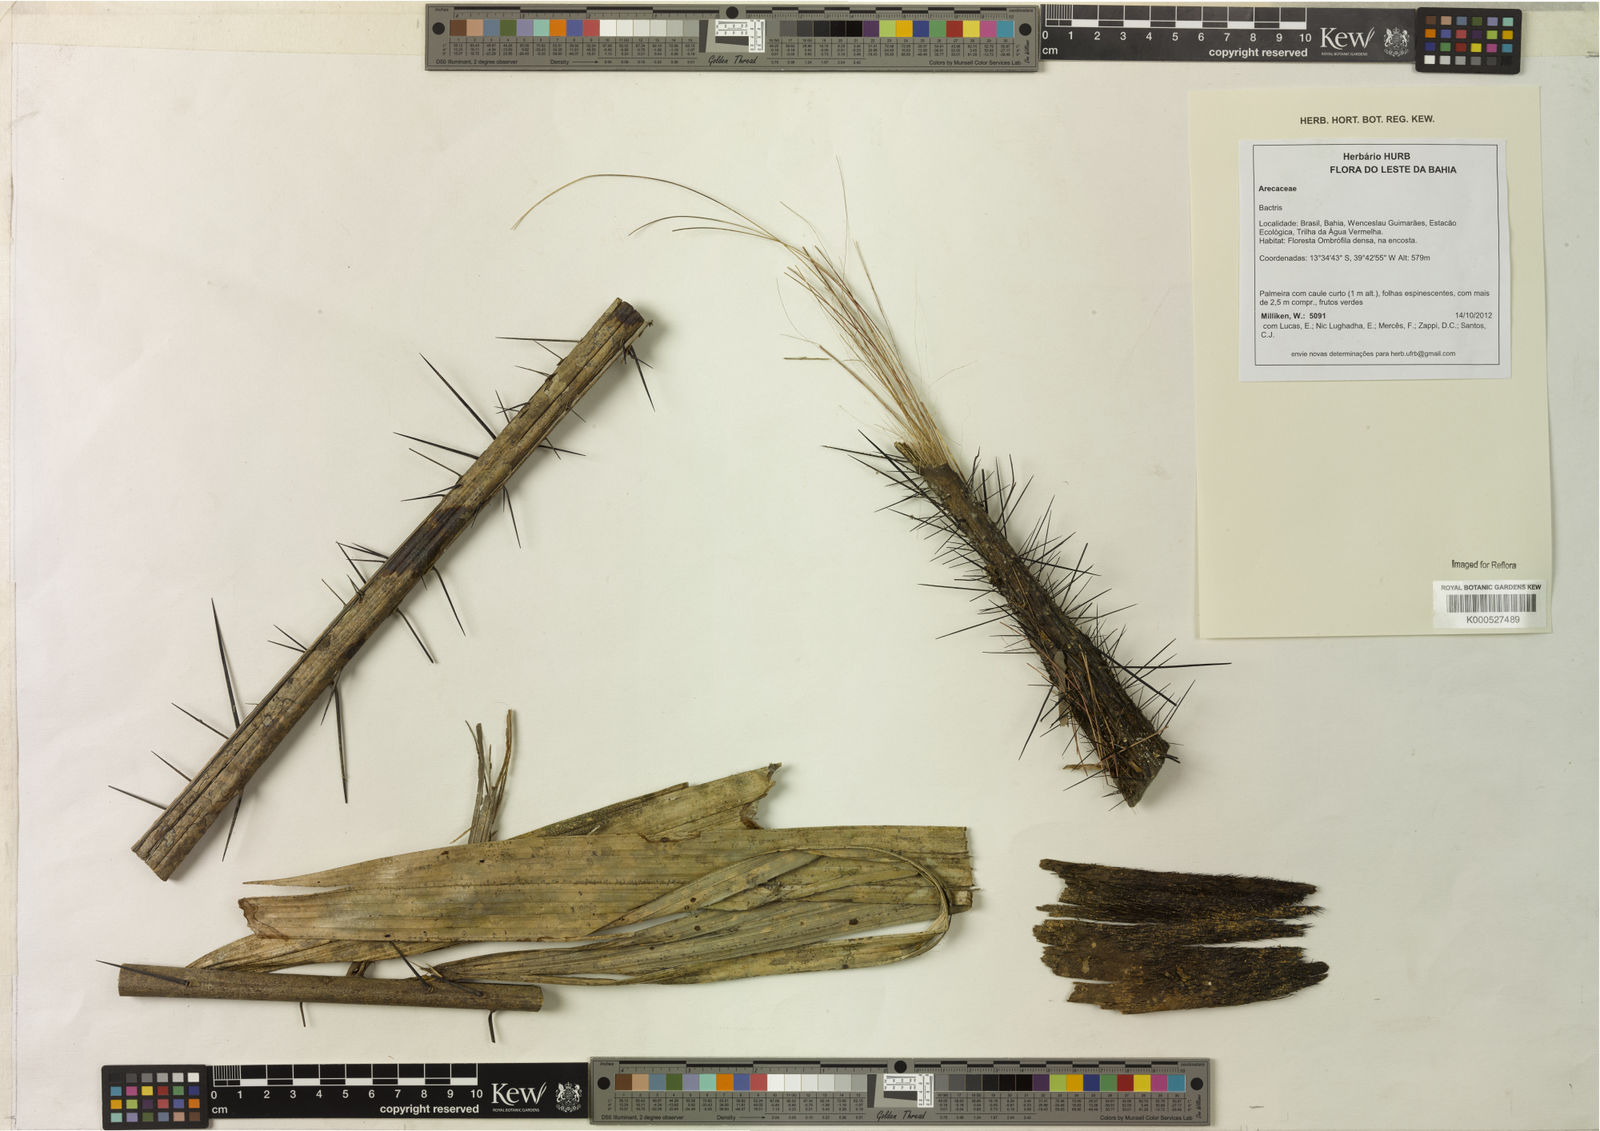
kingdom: Plantae
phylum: Tracheophyta
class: Liliopsida
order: Arecales
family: Arecaceae
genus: Bactris
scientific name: Bactris
